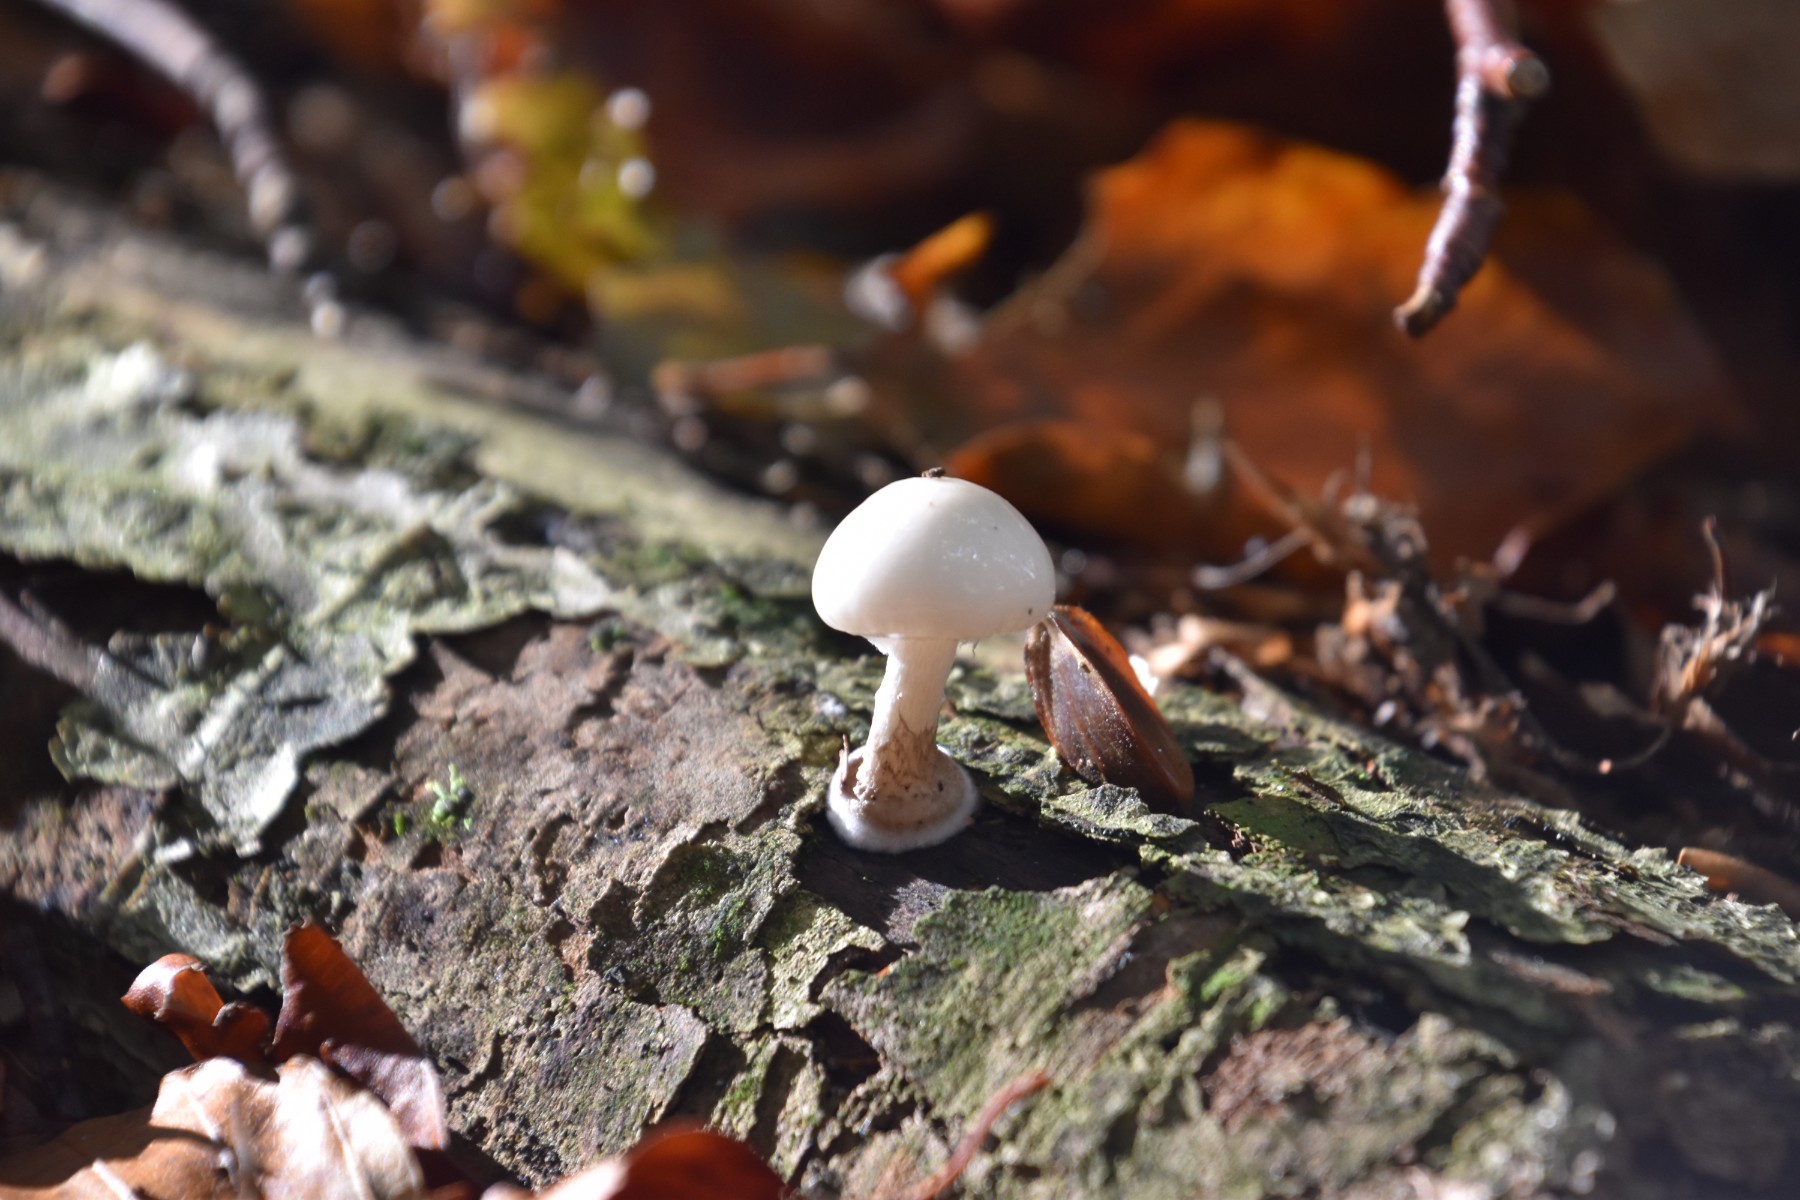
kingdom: Fungi
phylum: Basidiomycota
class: Agaricomycetes
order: Agaricales
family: Physalacriaceae
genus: Mucidula
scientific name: Mucidula mucida
